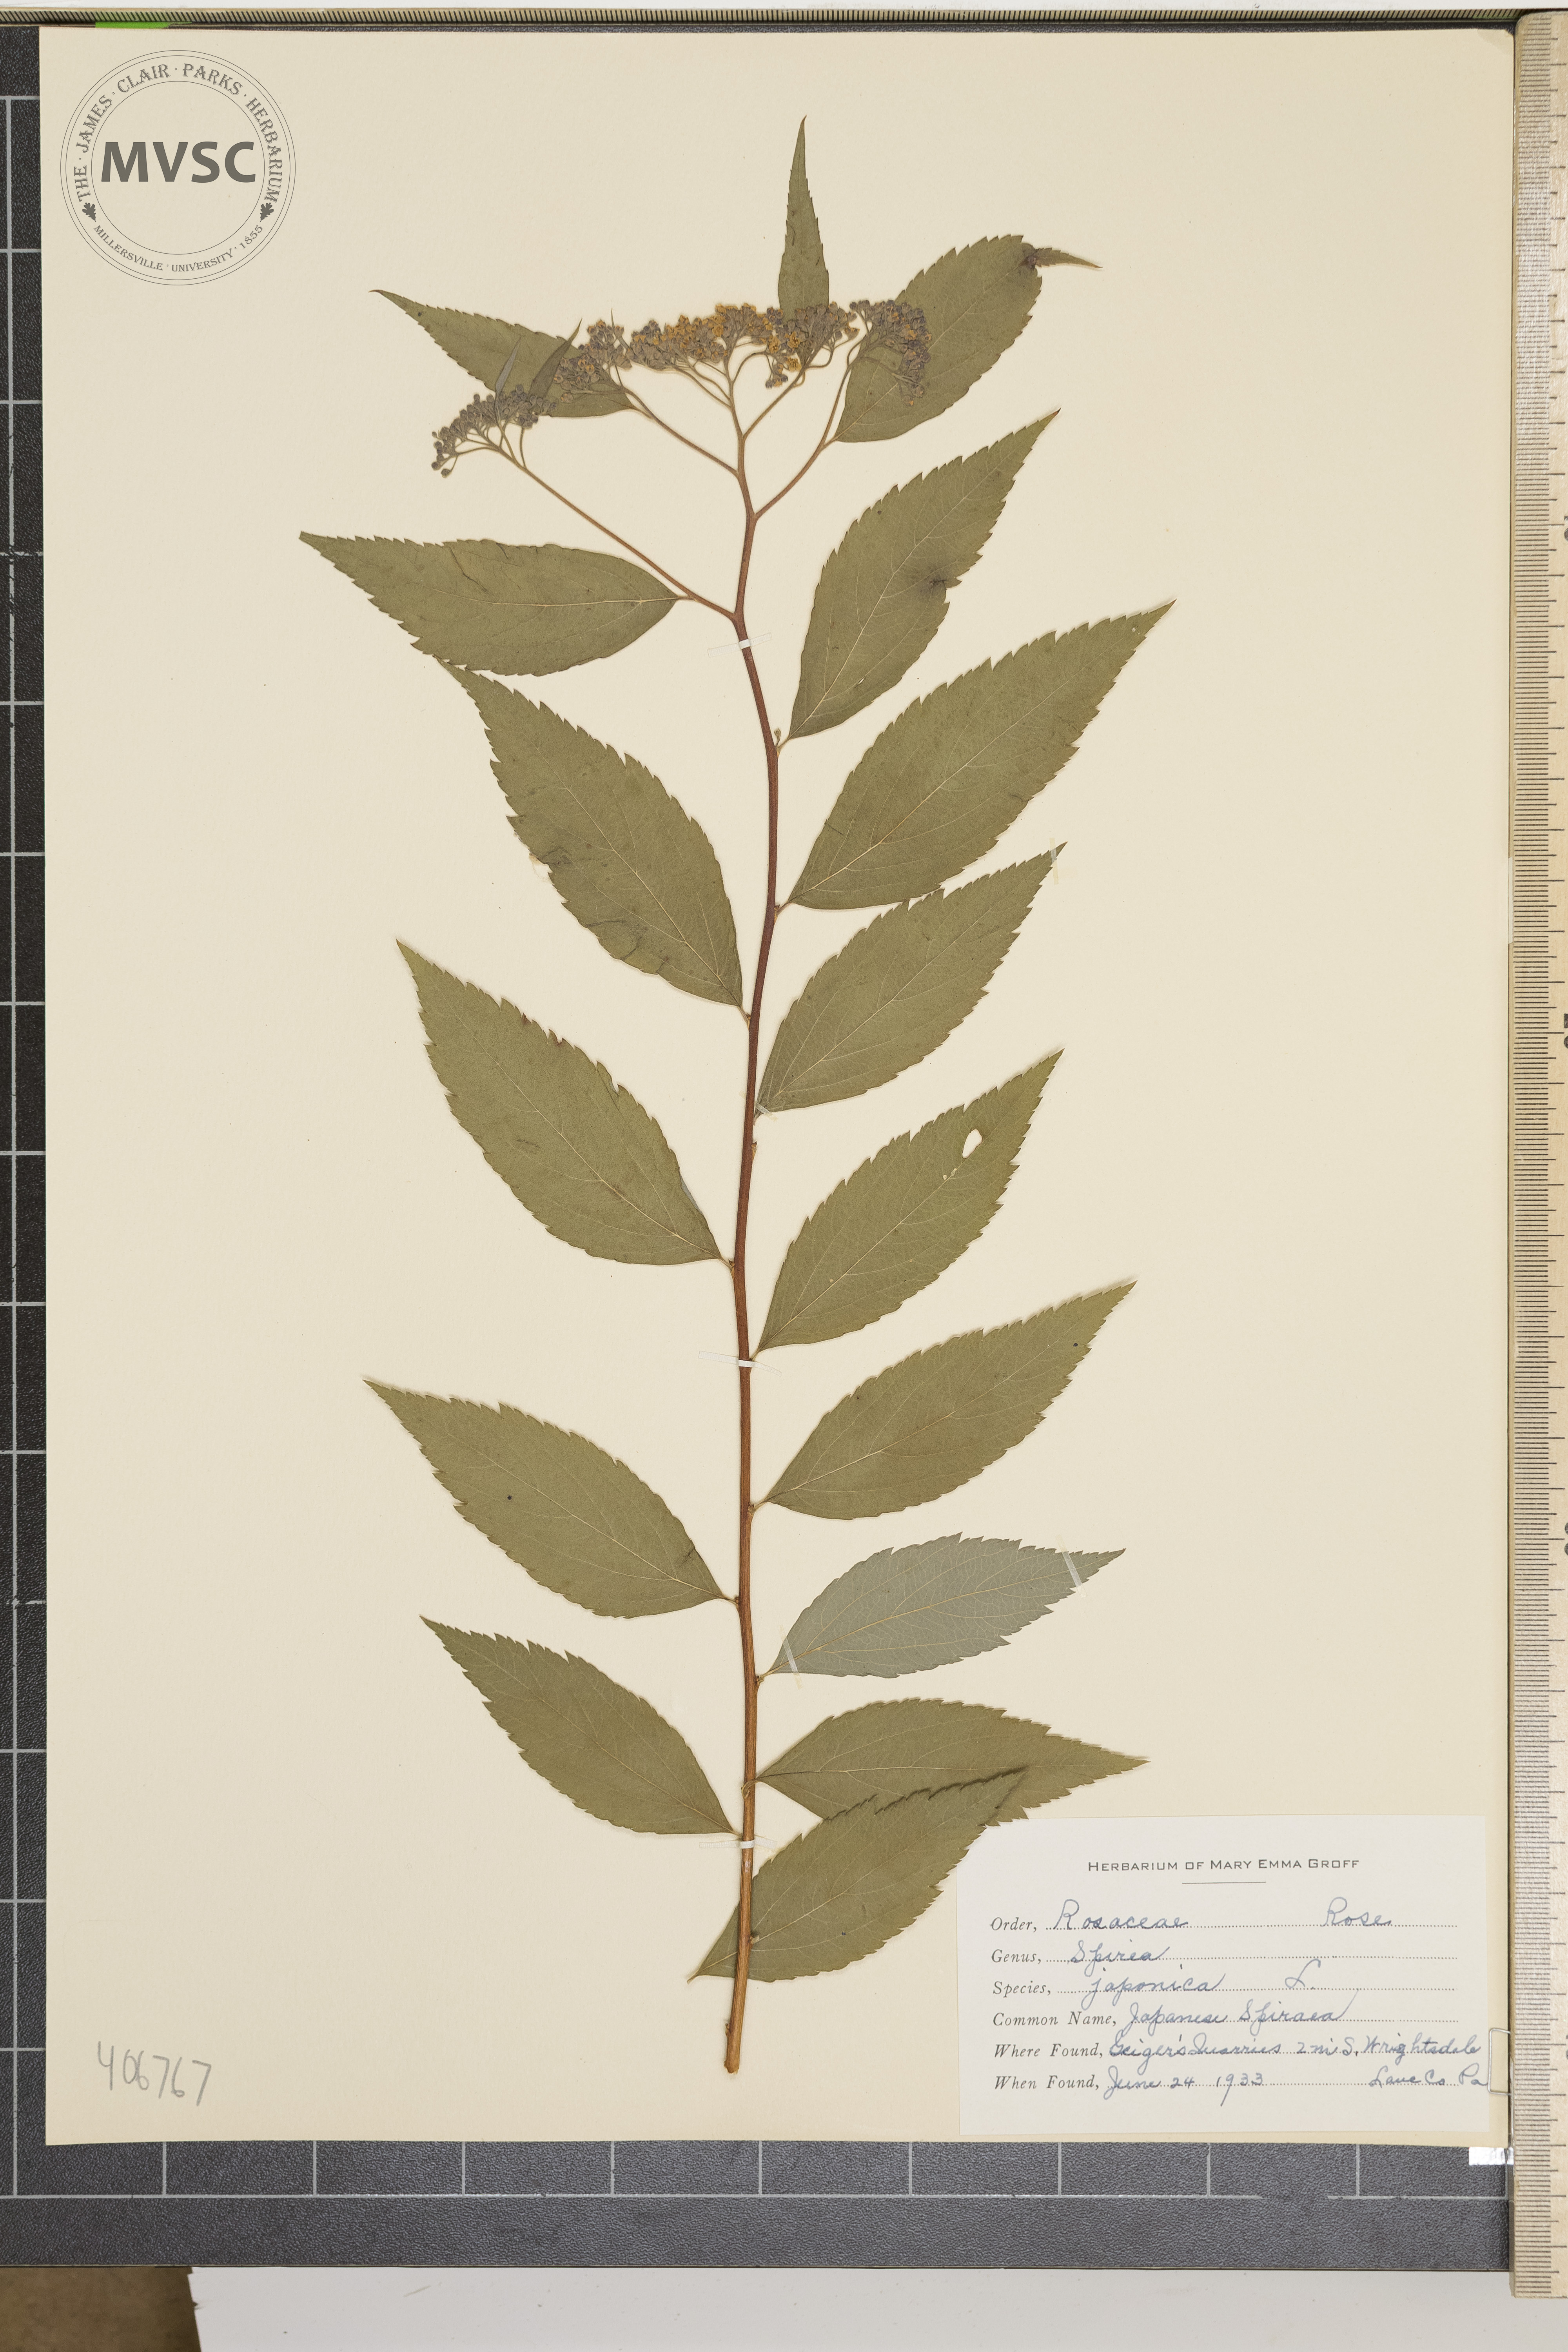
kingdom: Plantae
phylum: Tracheophyta
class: Magnoliopsida
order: Rosales
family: Rosaceae
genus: Spiraea
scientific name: Spiraea japonica
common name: Japanese spiraea
